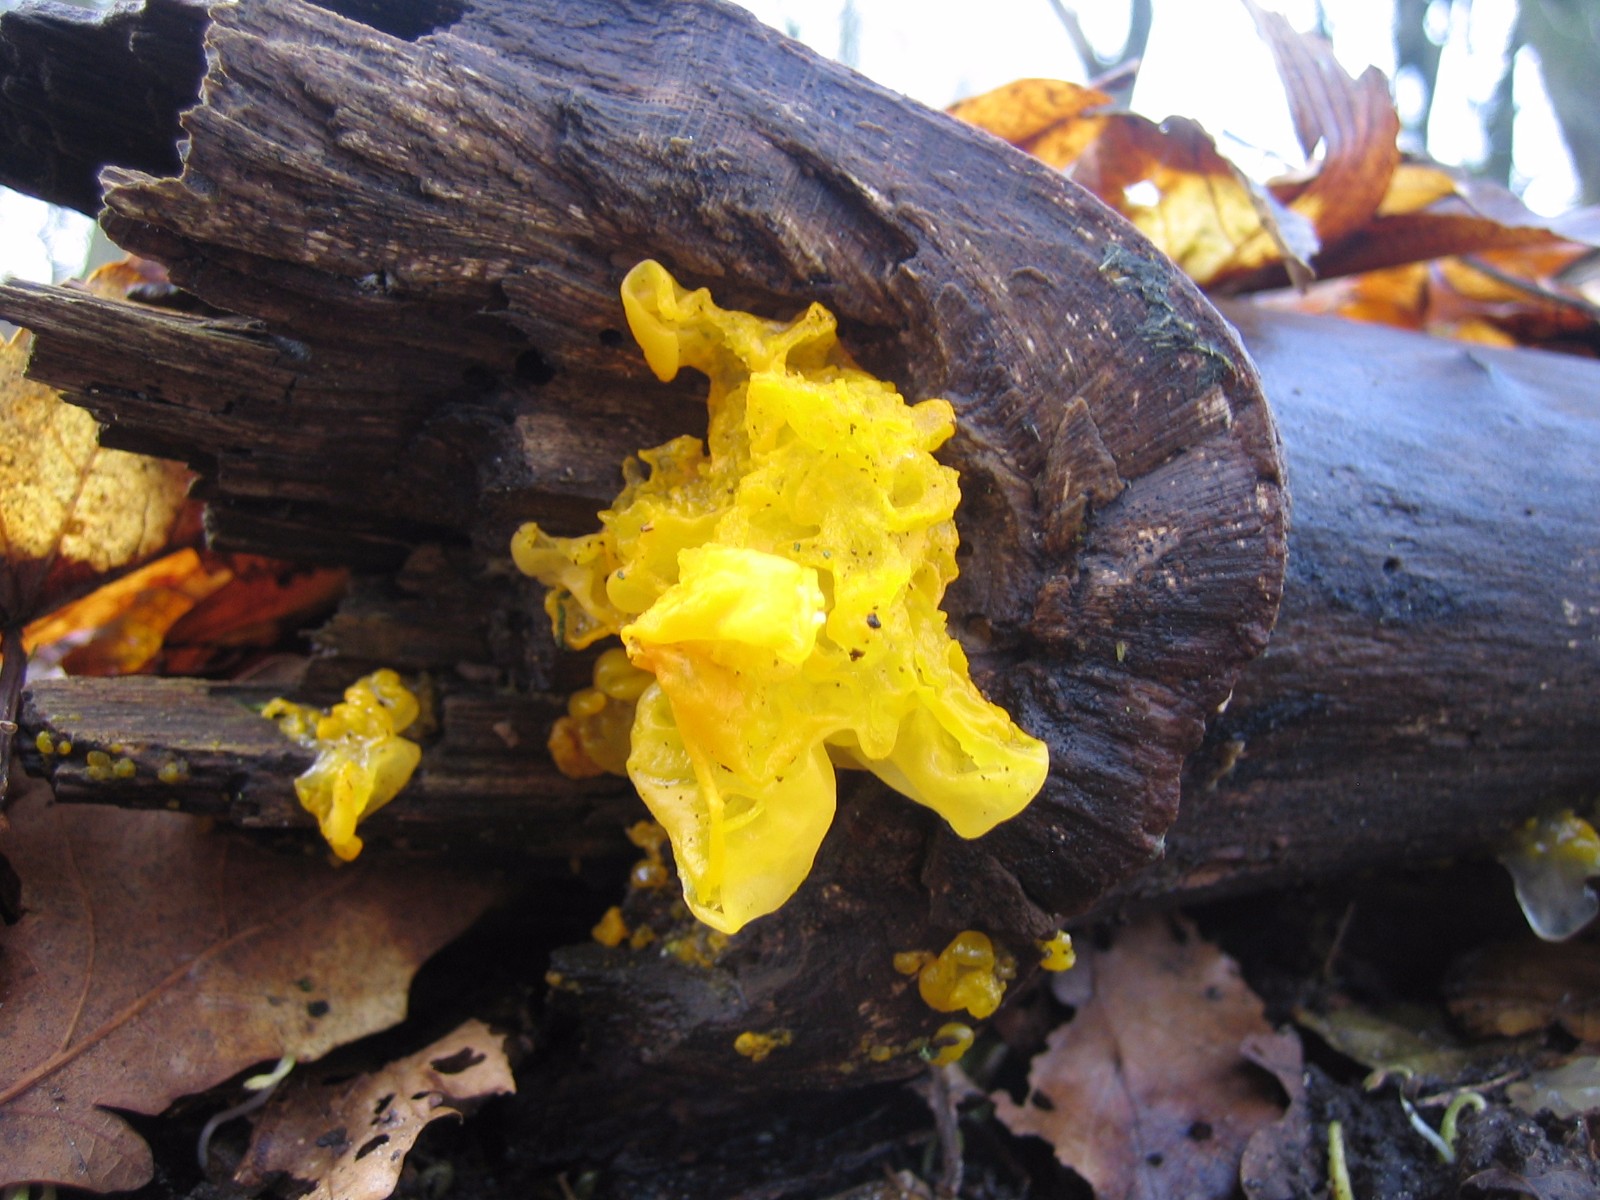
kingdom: Fungi
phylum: Basidiomycota
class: Tremellomycetes
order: Tremellales
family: Tremellaceae
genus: Tremella
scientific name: Tremella mesenterica
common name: gul bævresvamp
